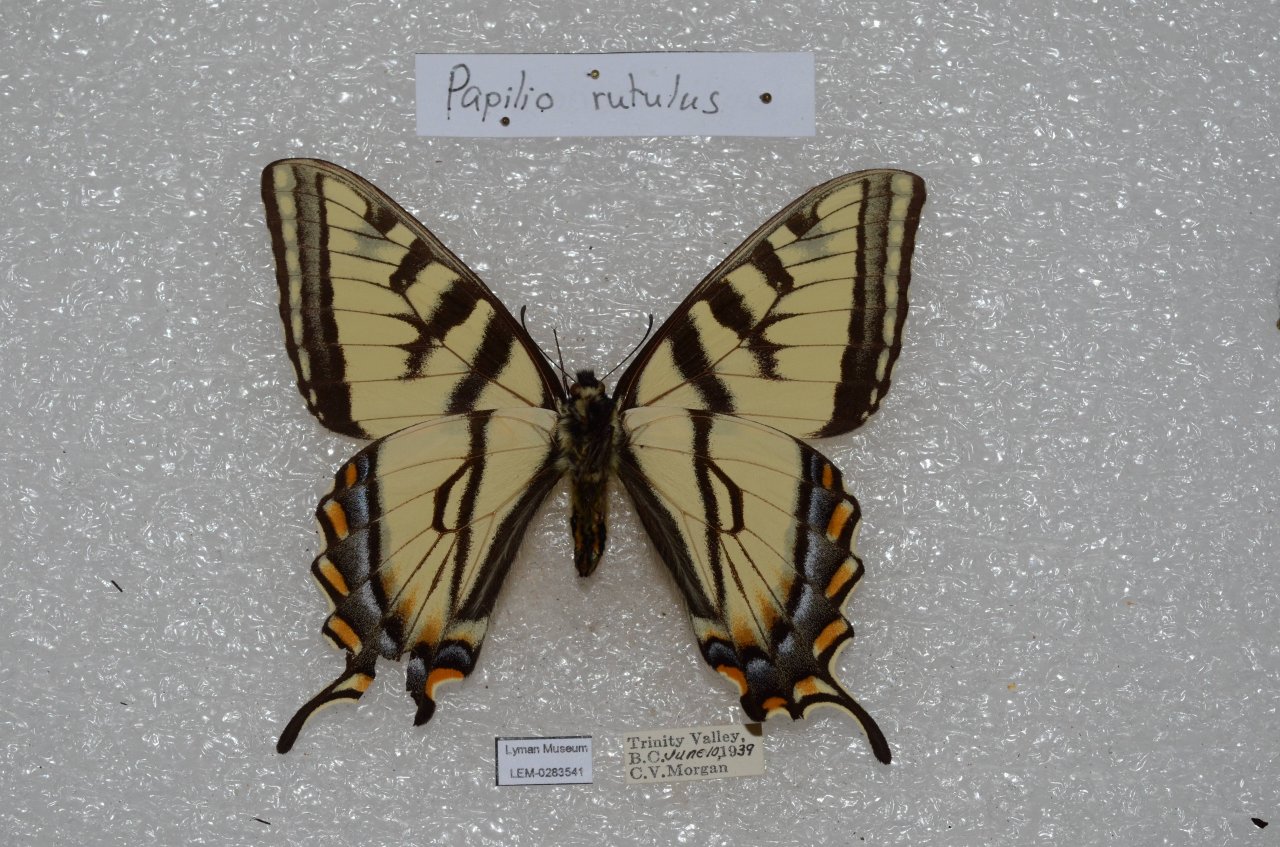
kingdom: Animalia
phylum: Arthropoda
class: Insecta
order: Lepidoptera
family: Papilionidae
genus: Pterourus
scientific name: Pterourus rutulus
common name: Western Tiger Swallowtail
